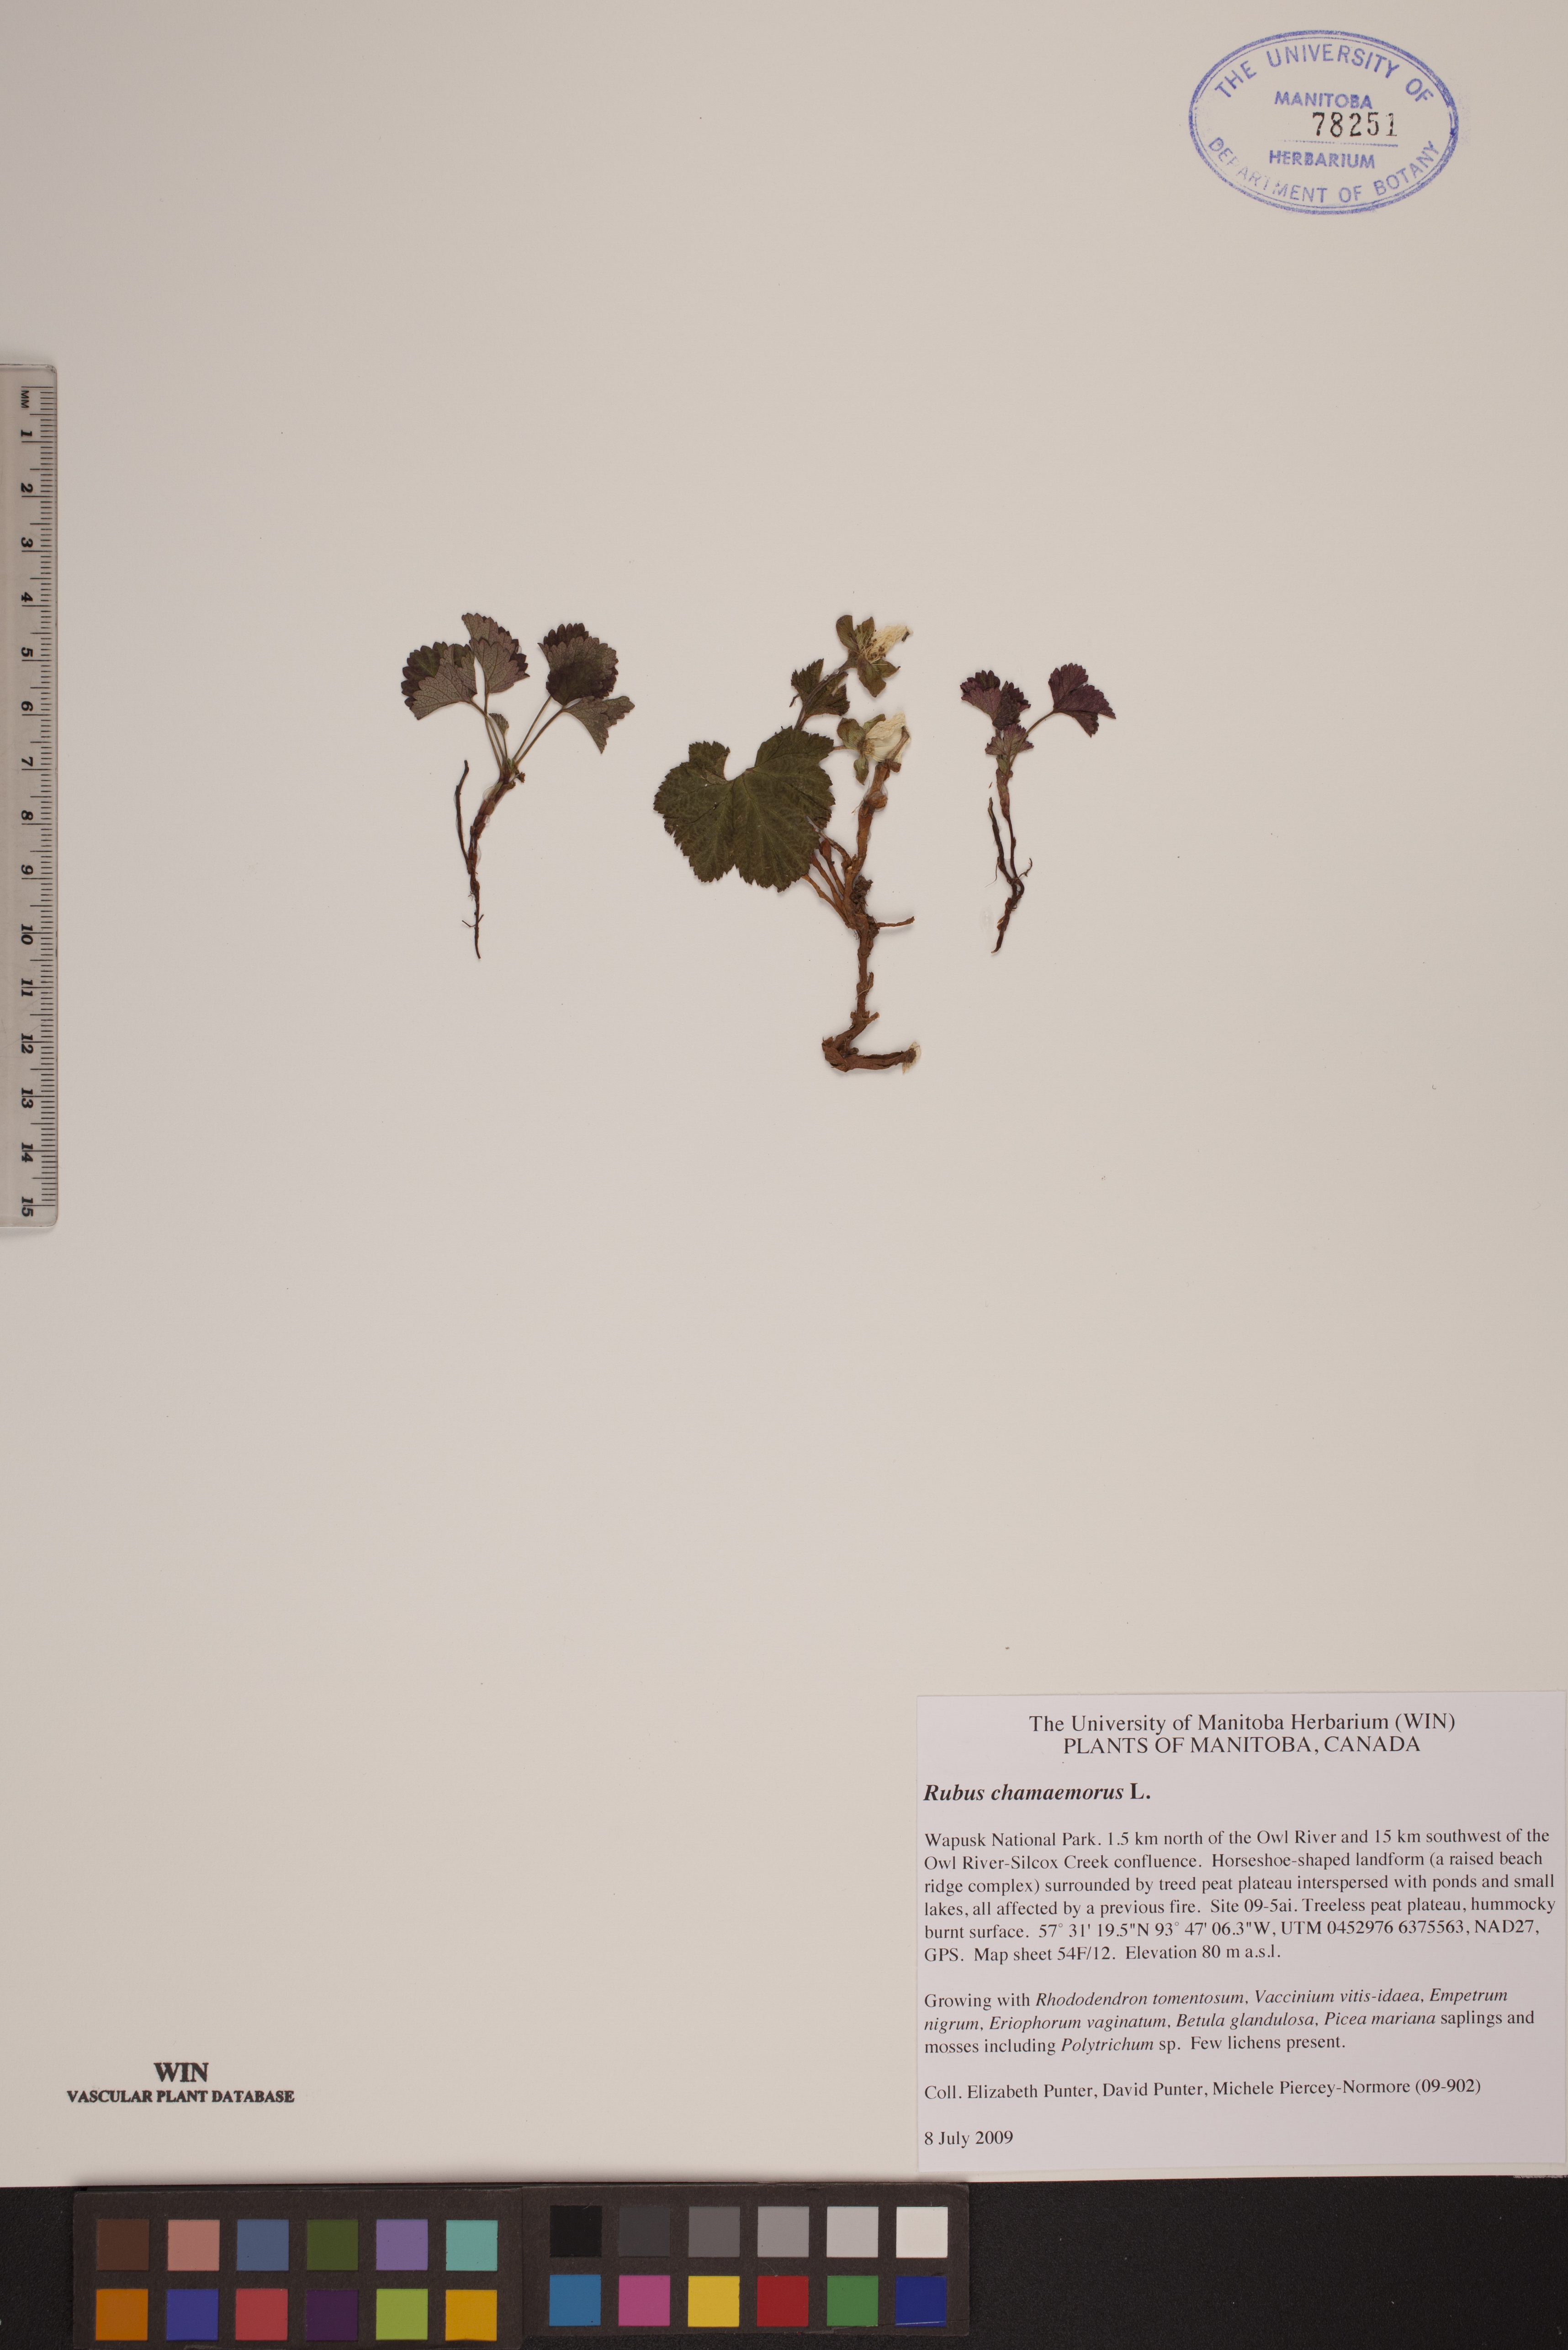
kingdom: Plantae
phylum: Tracheophyta
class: Magnoliopsida
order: Rosales
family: Rosaceae
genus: Rubus
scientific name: Rubus chamaemorus
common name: Cloudberry
